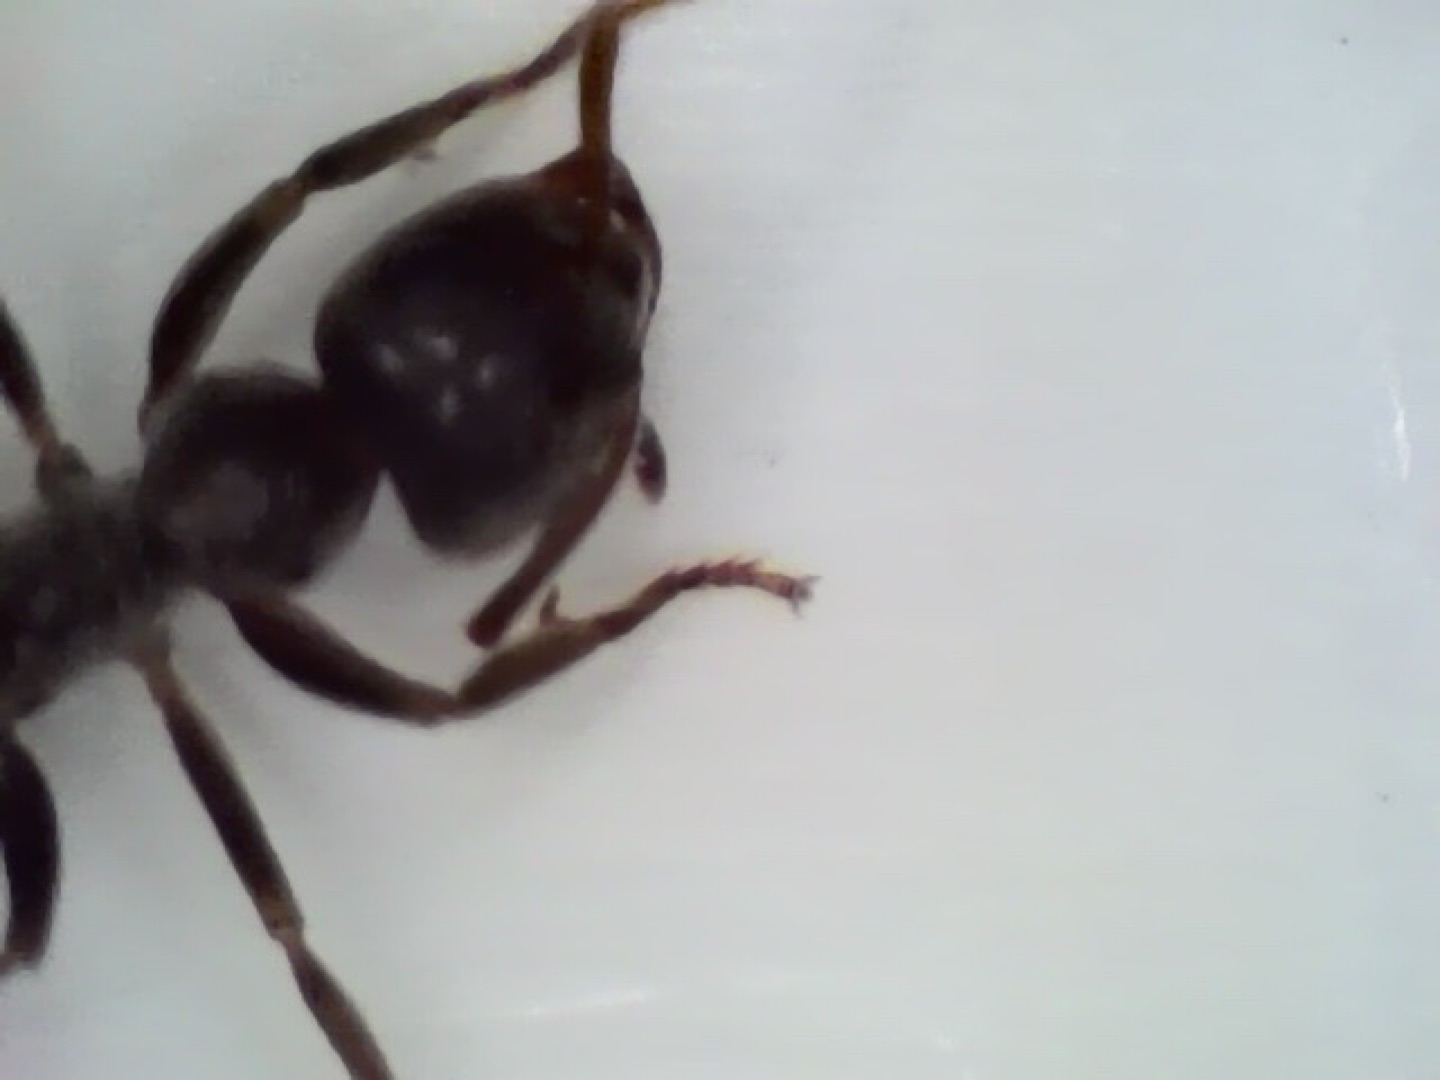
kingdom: Animalia
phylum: Arthropoda
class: Insecta
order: Hymenoptera
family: Formicidae
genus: Lasius
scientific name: Lasius
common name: Jordmyrer
